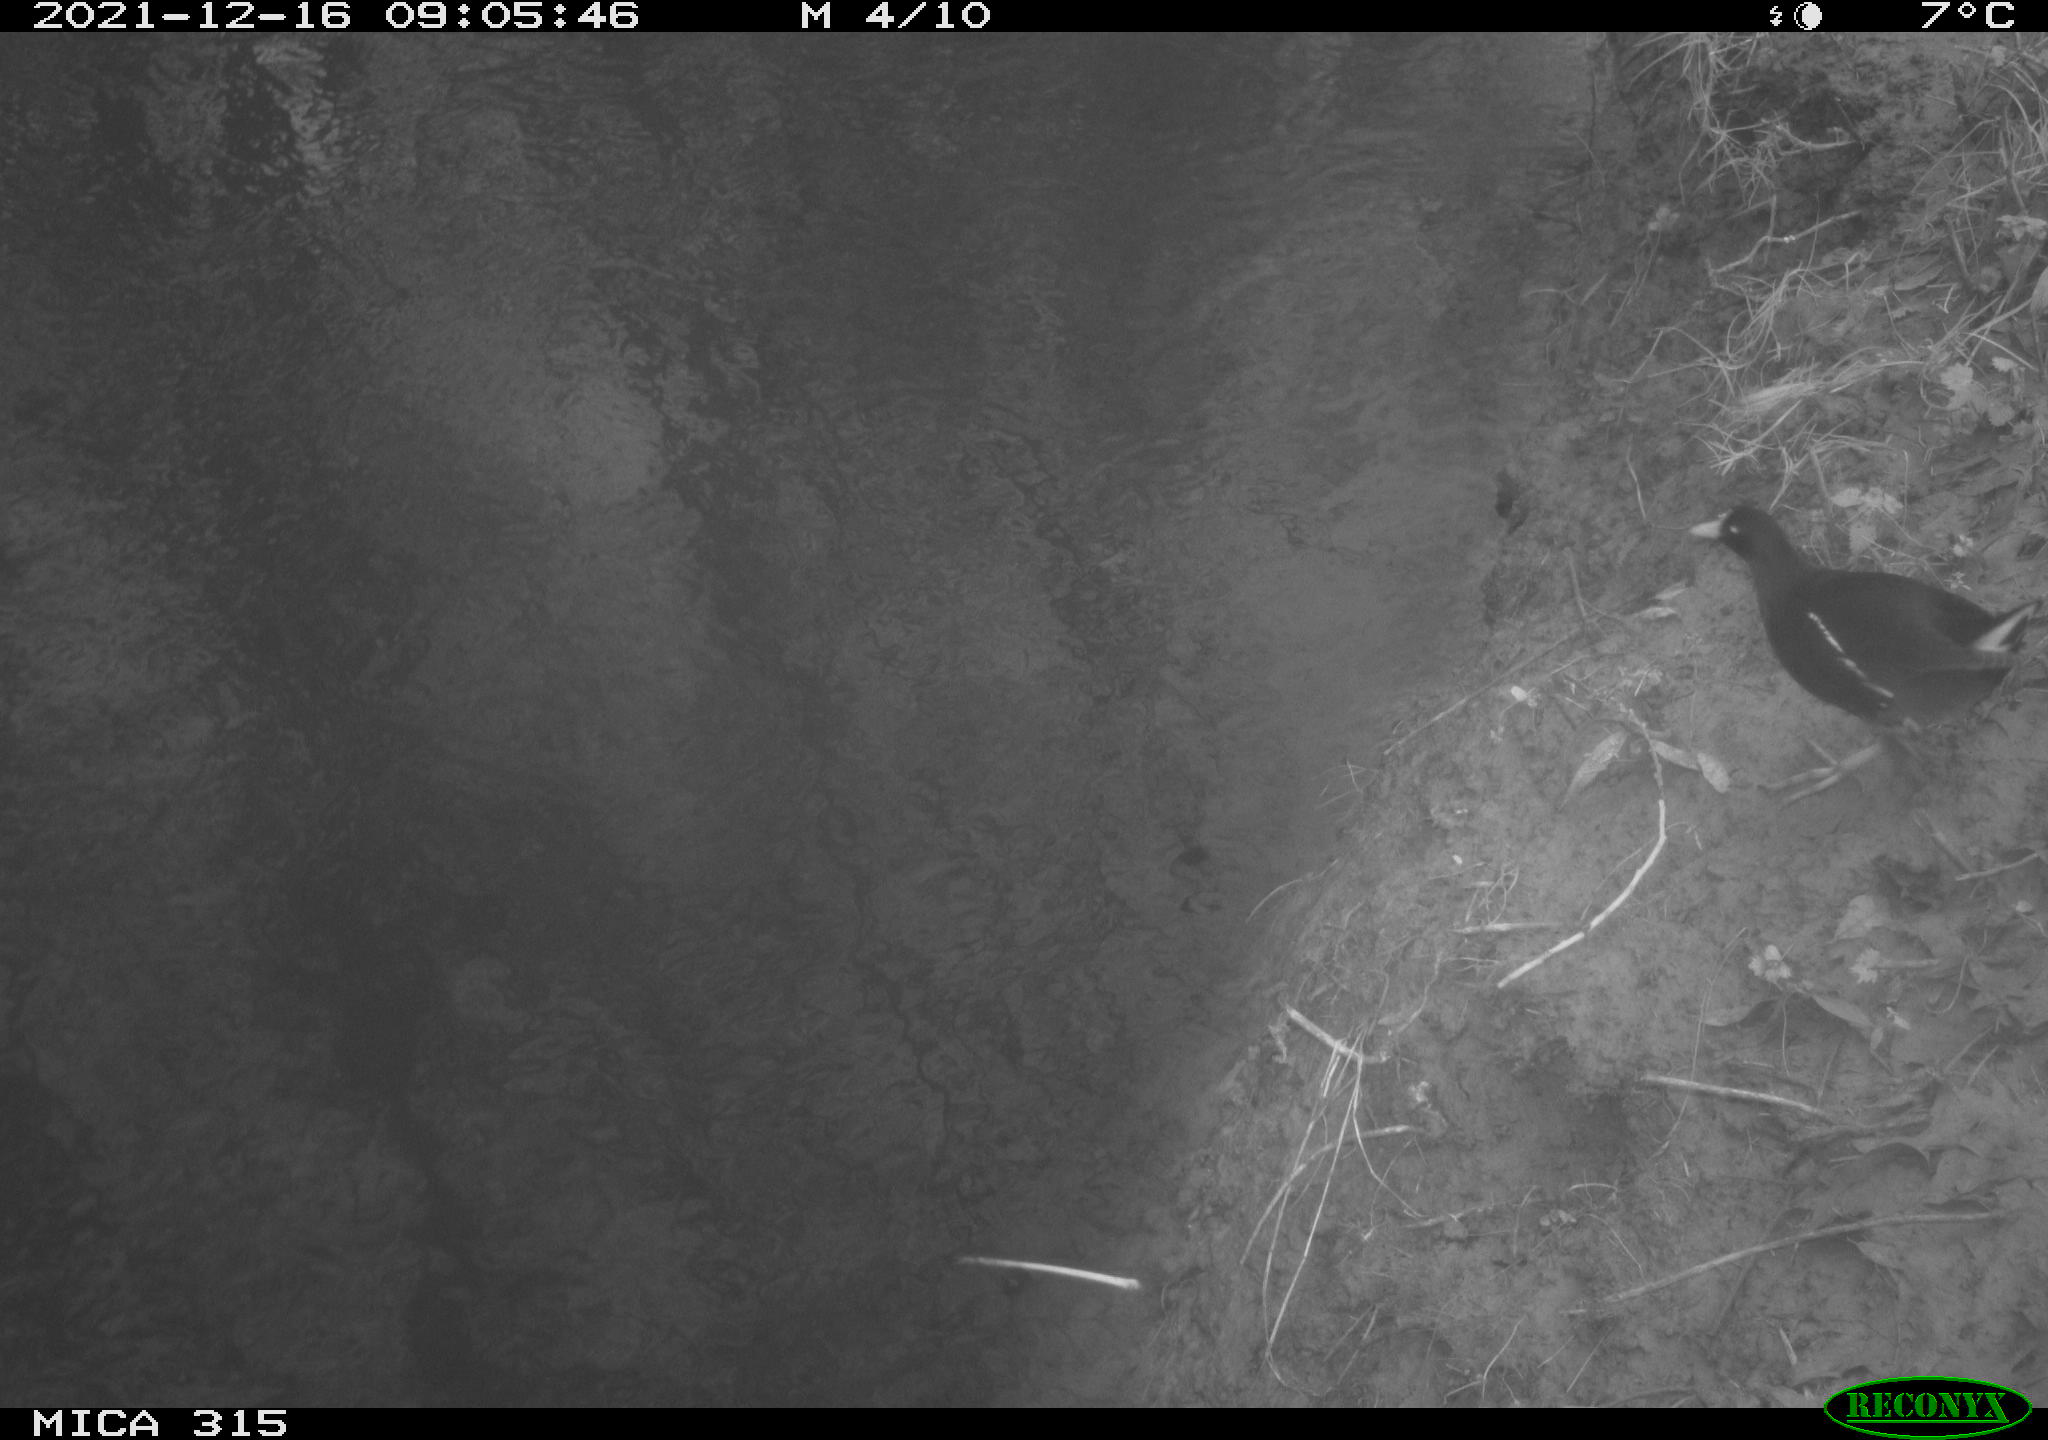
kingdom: Animalia
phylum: Chordata
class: Aves
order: Gruiformes
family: Rallidae
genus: Gallinula
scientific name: Gallinula chloropus
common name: Common moorhen
